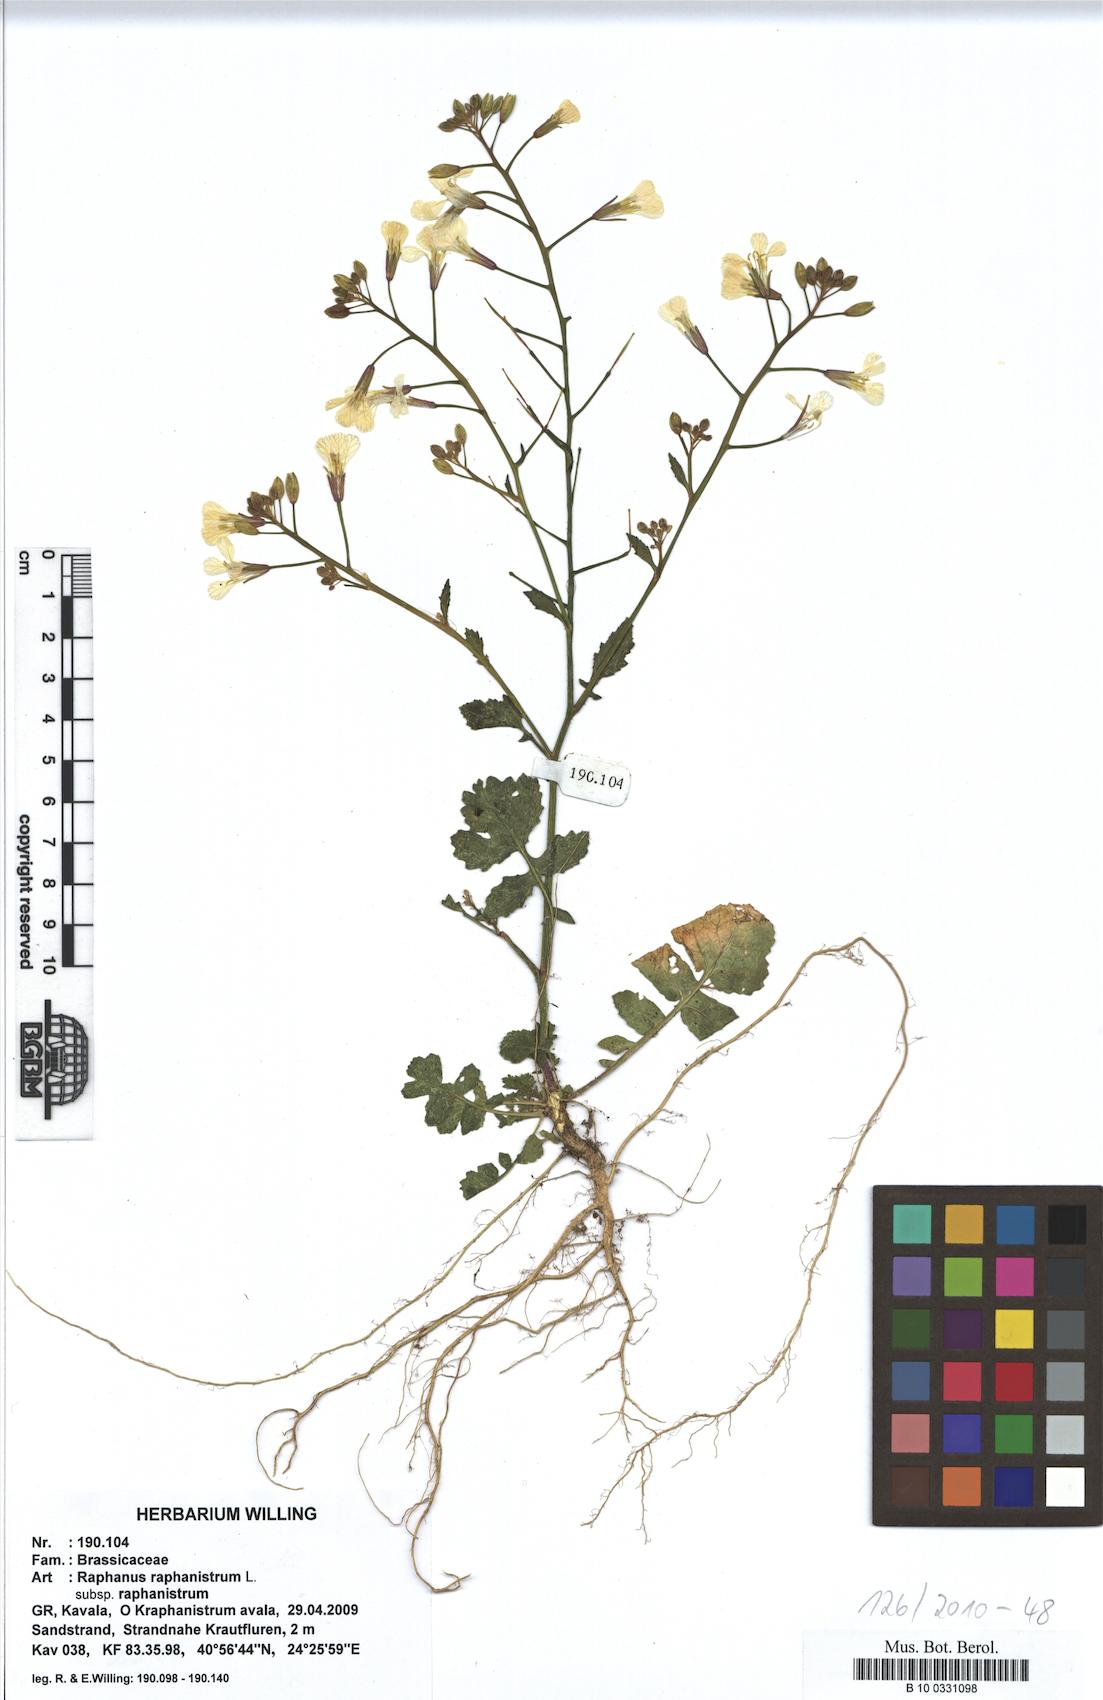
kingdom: Plantae
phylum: Tracheophyta
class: Magnoliopsida
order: Brassicales
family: Brassicaceae
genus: Raphanus
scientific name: Raphanus raphanistrum
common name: Wild radish
